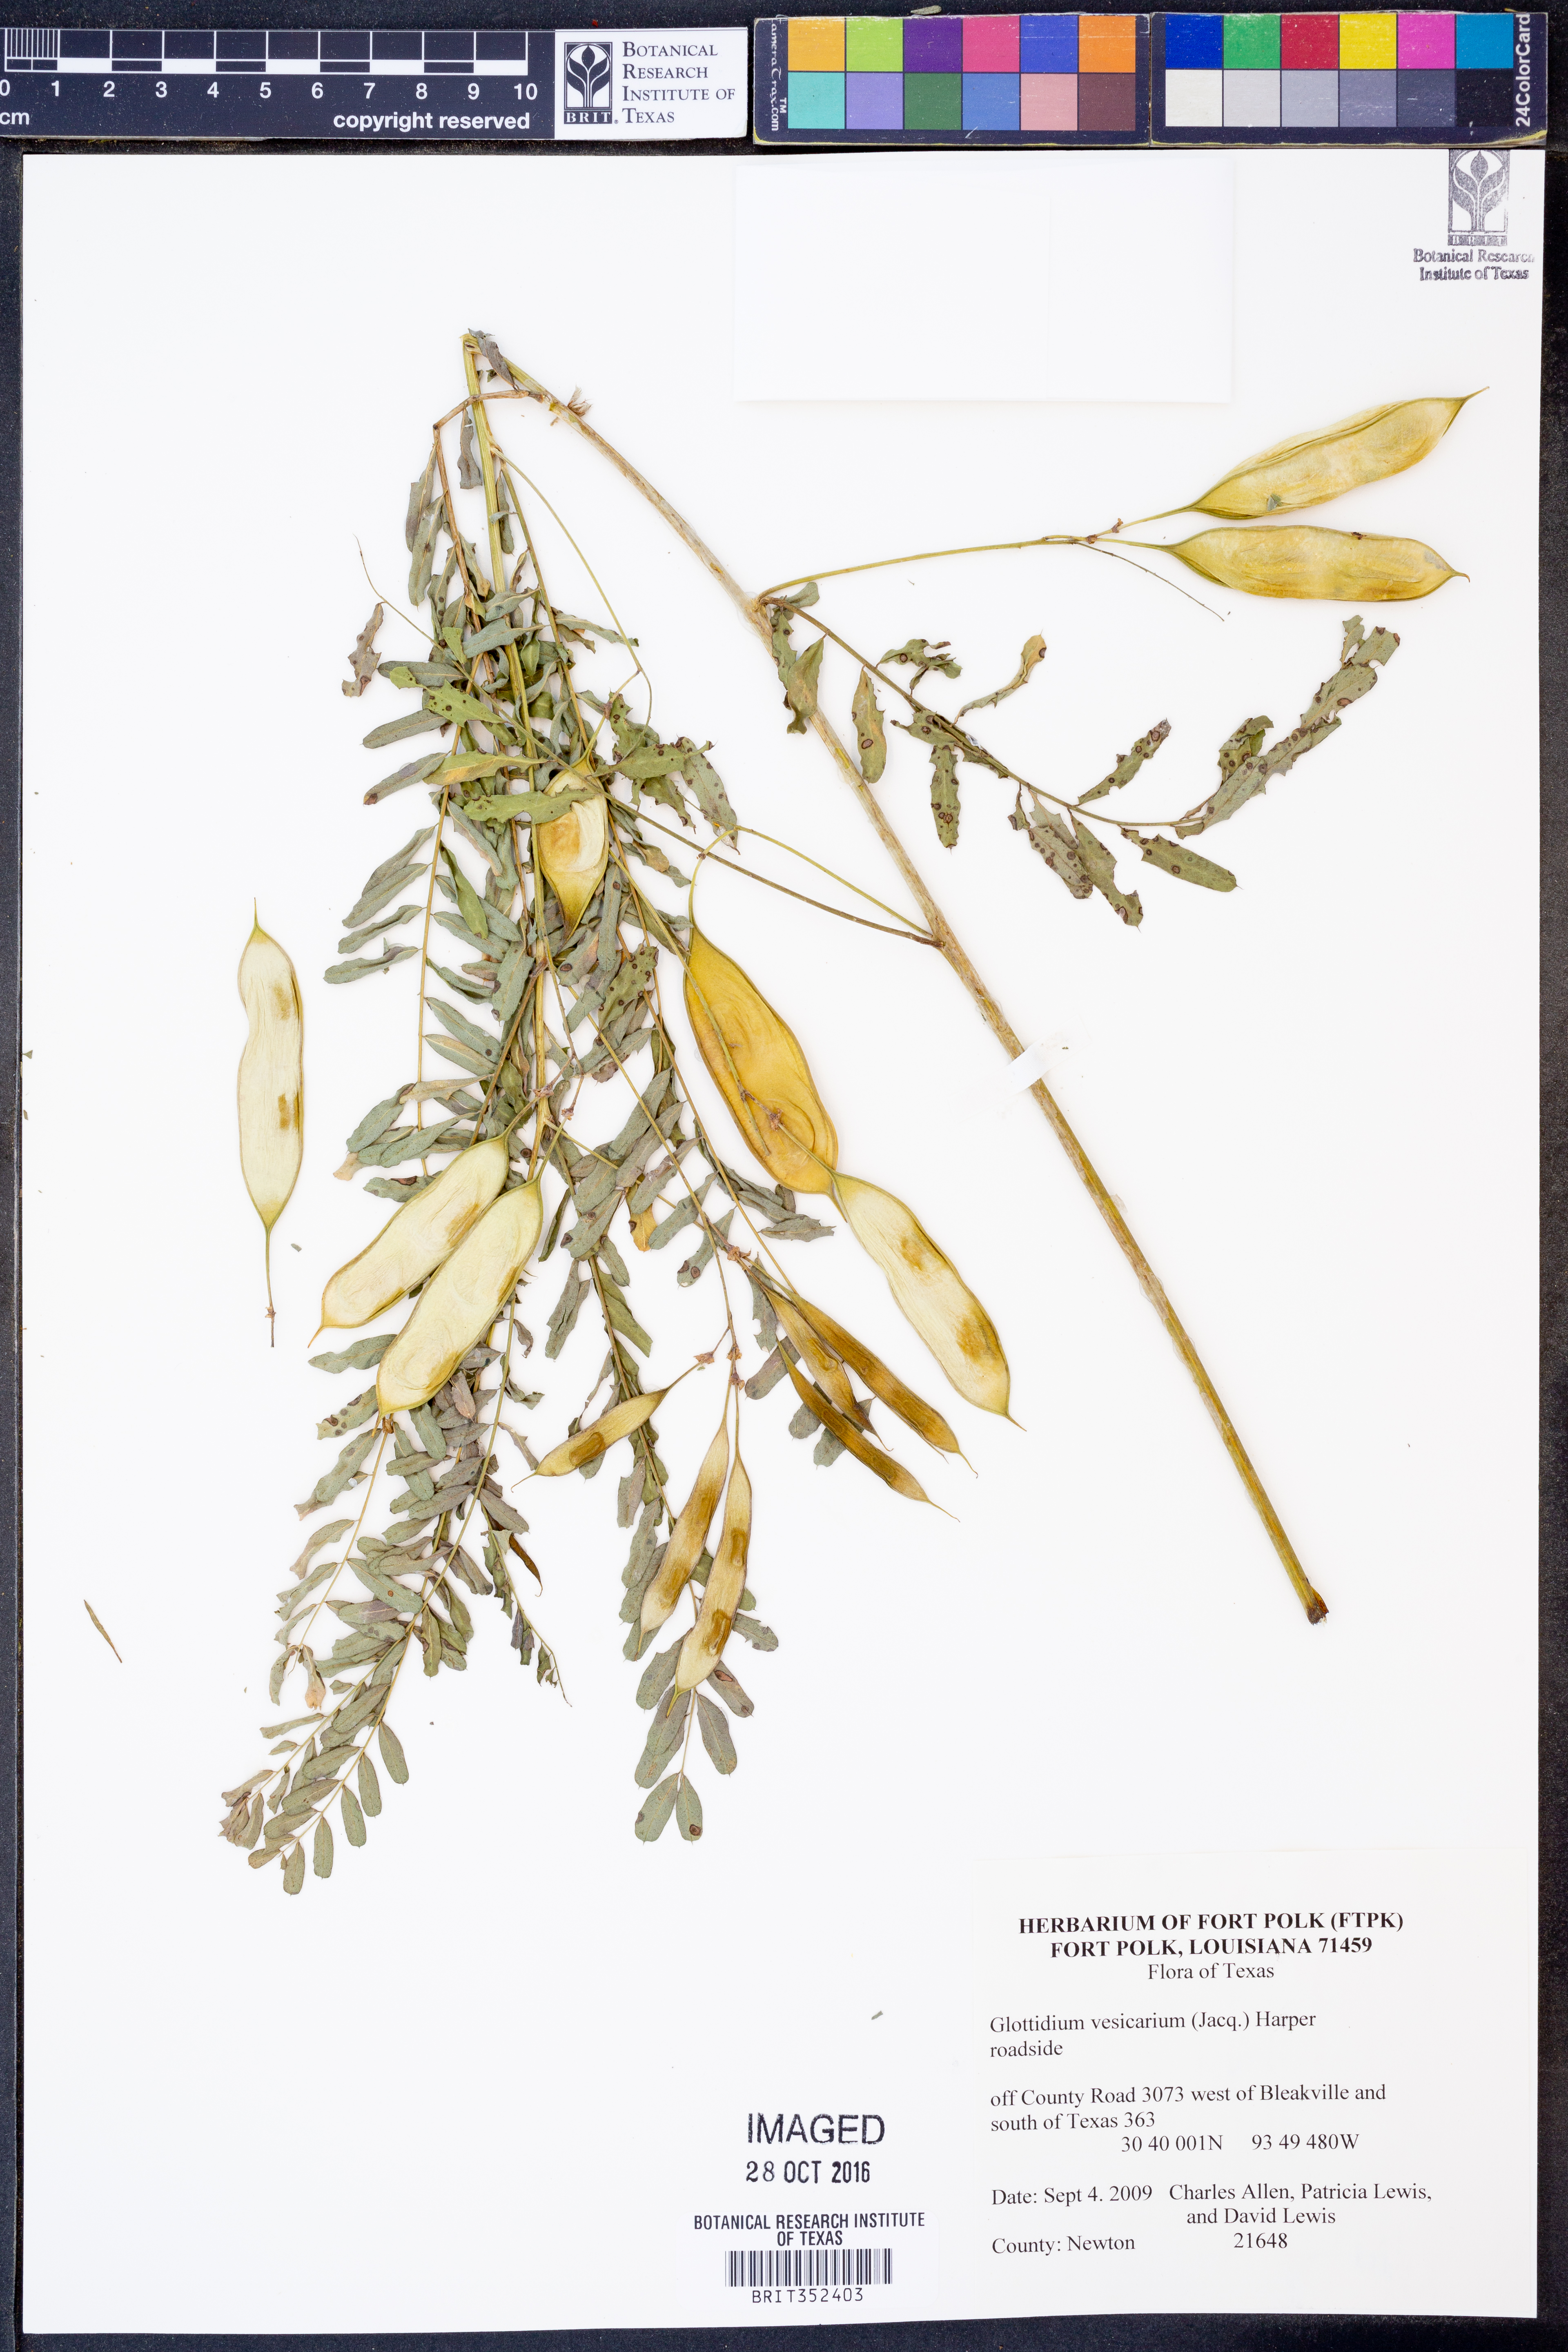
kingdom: Plantae
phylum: Tracheophyta
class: Magnoliopsida
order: Fabales
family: Fabaceae
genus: Sesbania
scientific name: Sesbania vesicaria
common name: Bagpod
